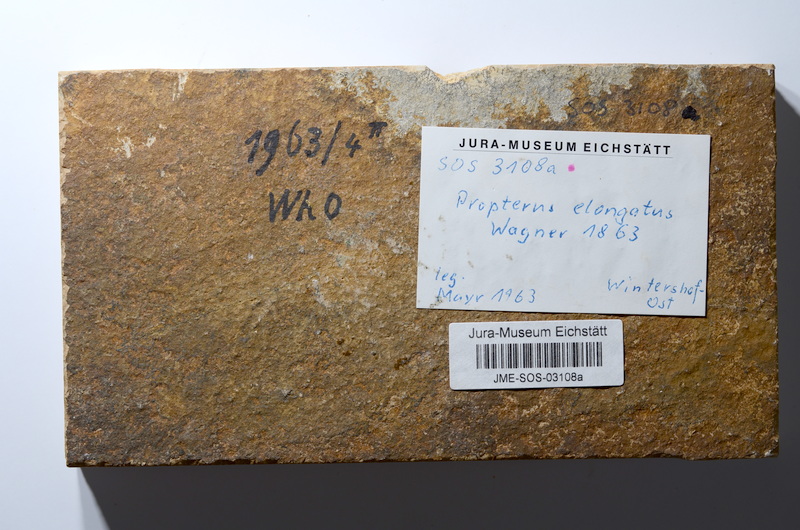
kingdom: Animalia
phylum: Chordata
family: Macrosemiidae
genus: Propterus
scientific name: Propterus elongatus
